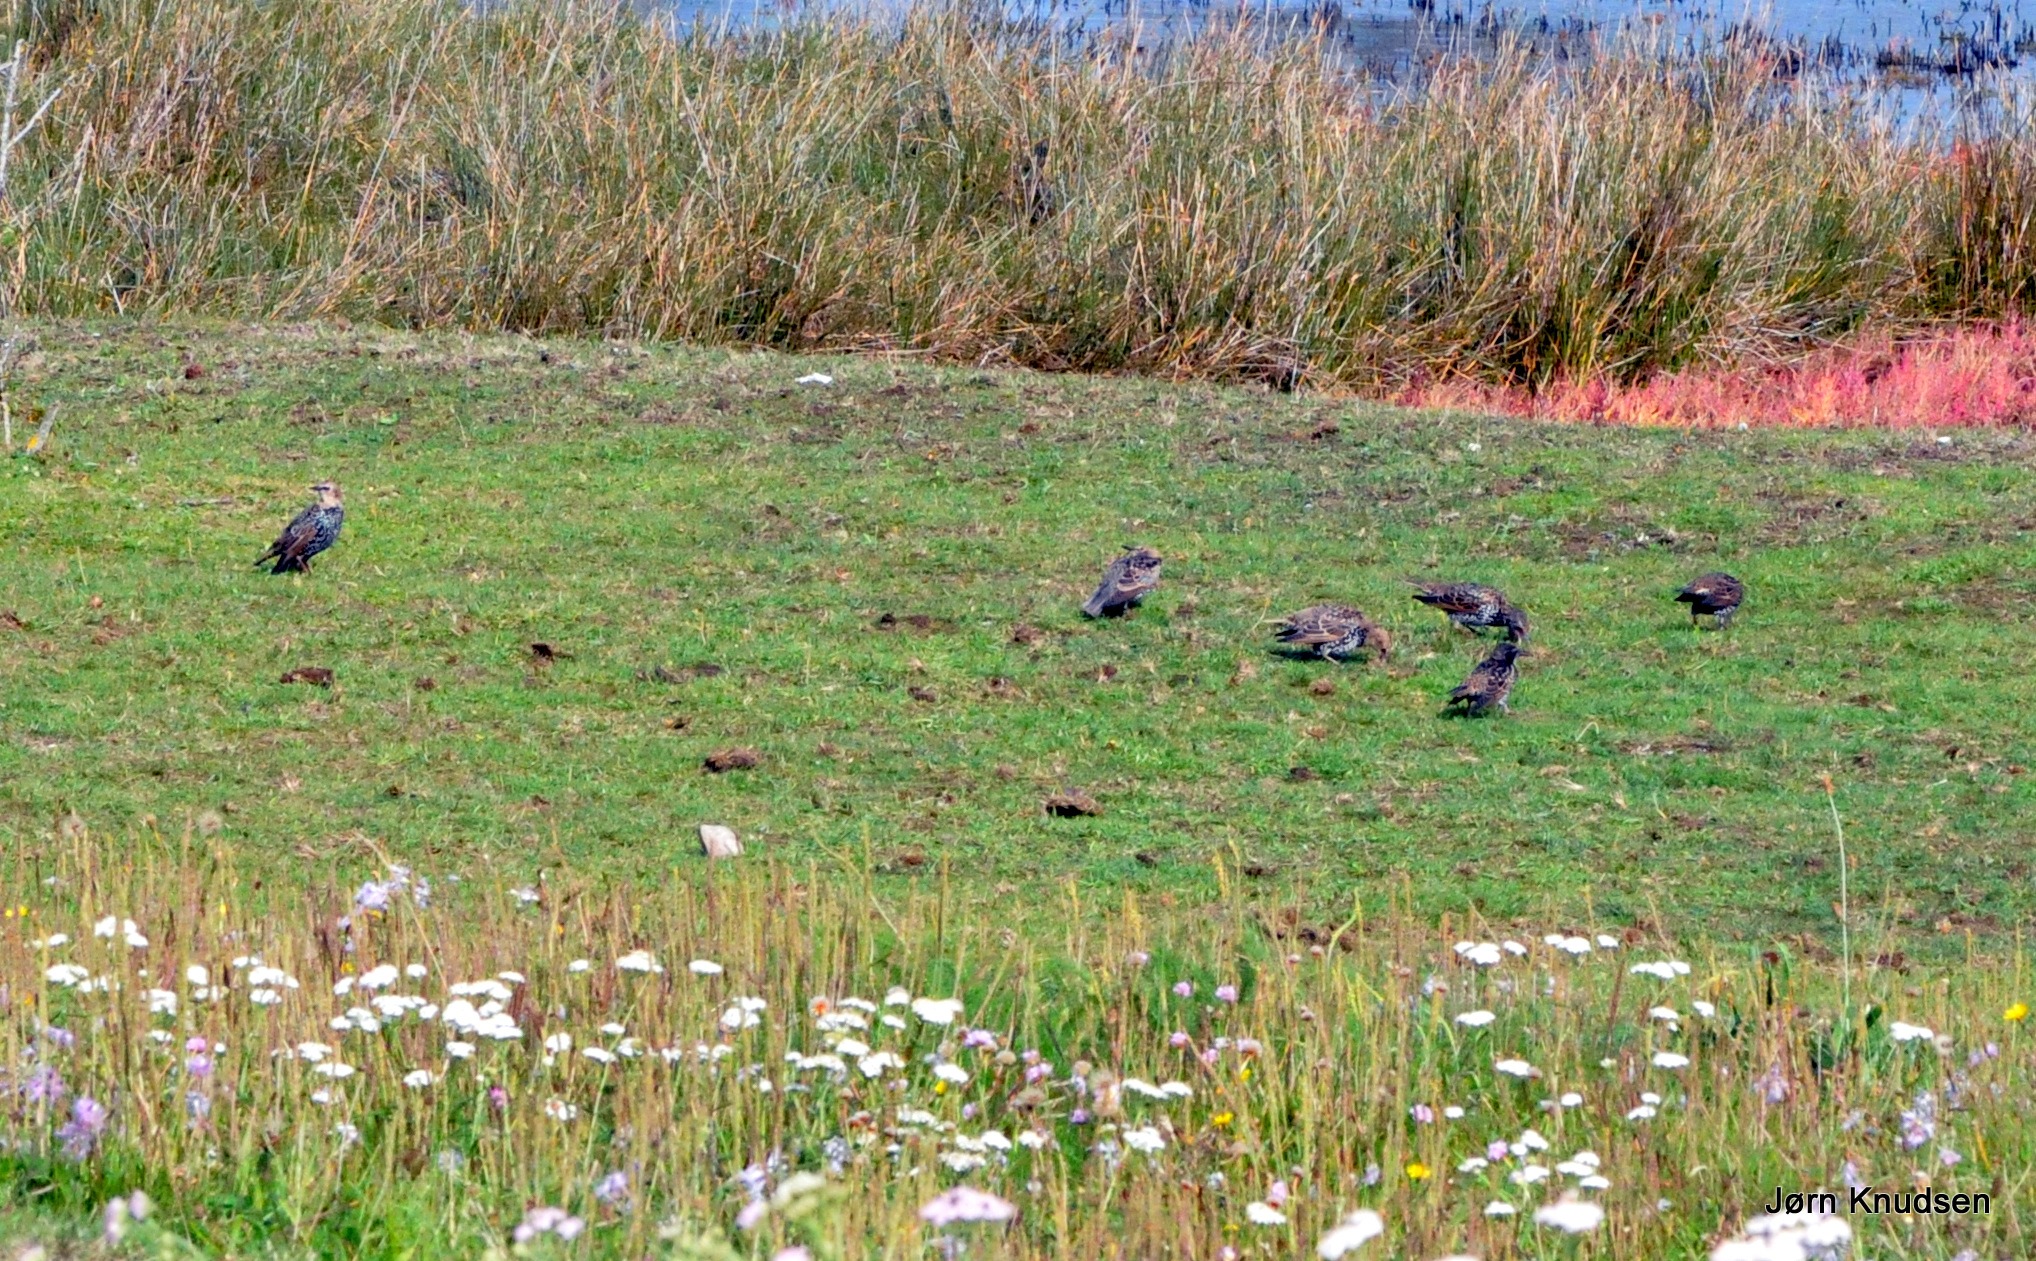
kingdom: Animalia
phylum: Chordata
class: Aves
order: Passeriformes
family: Sturnidae
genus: Sturnus
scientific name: Sturnus vulgaris
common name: Stær
